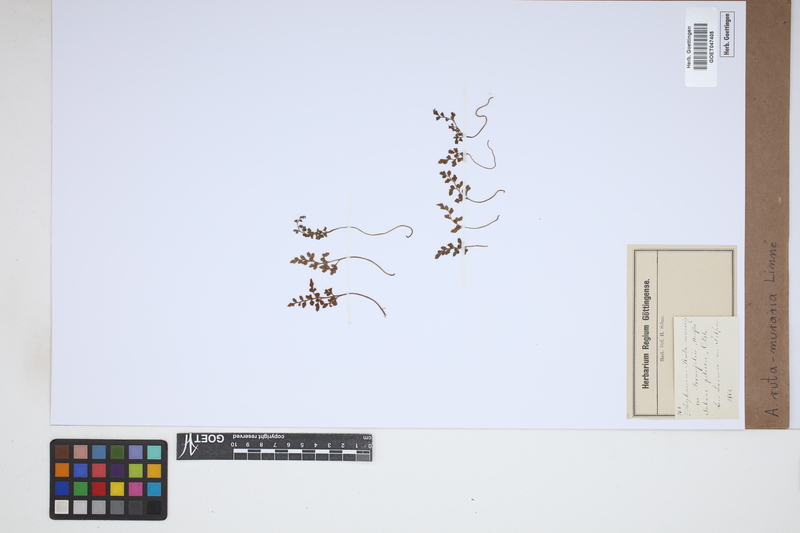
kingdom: Plantae
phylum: Tracheophyta
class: Polypodiopsida
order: Polypodiales
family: Aspleniaceae
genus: Asplenium
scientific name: Asplenium ruta-muraria
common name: Wall-rue
